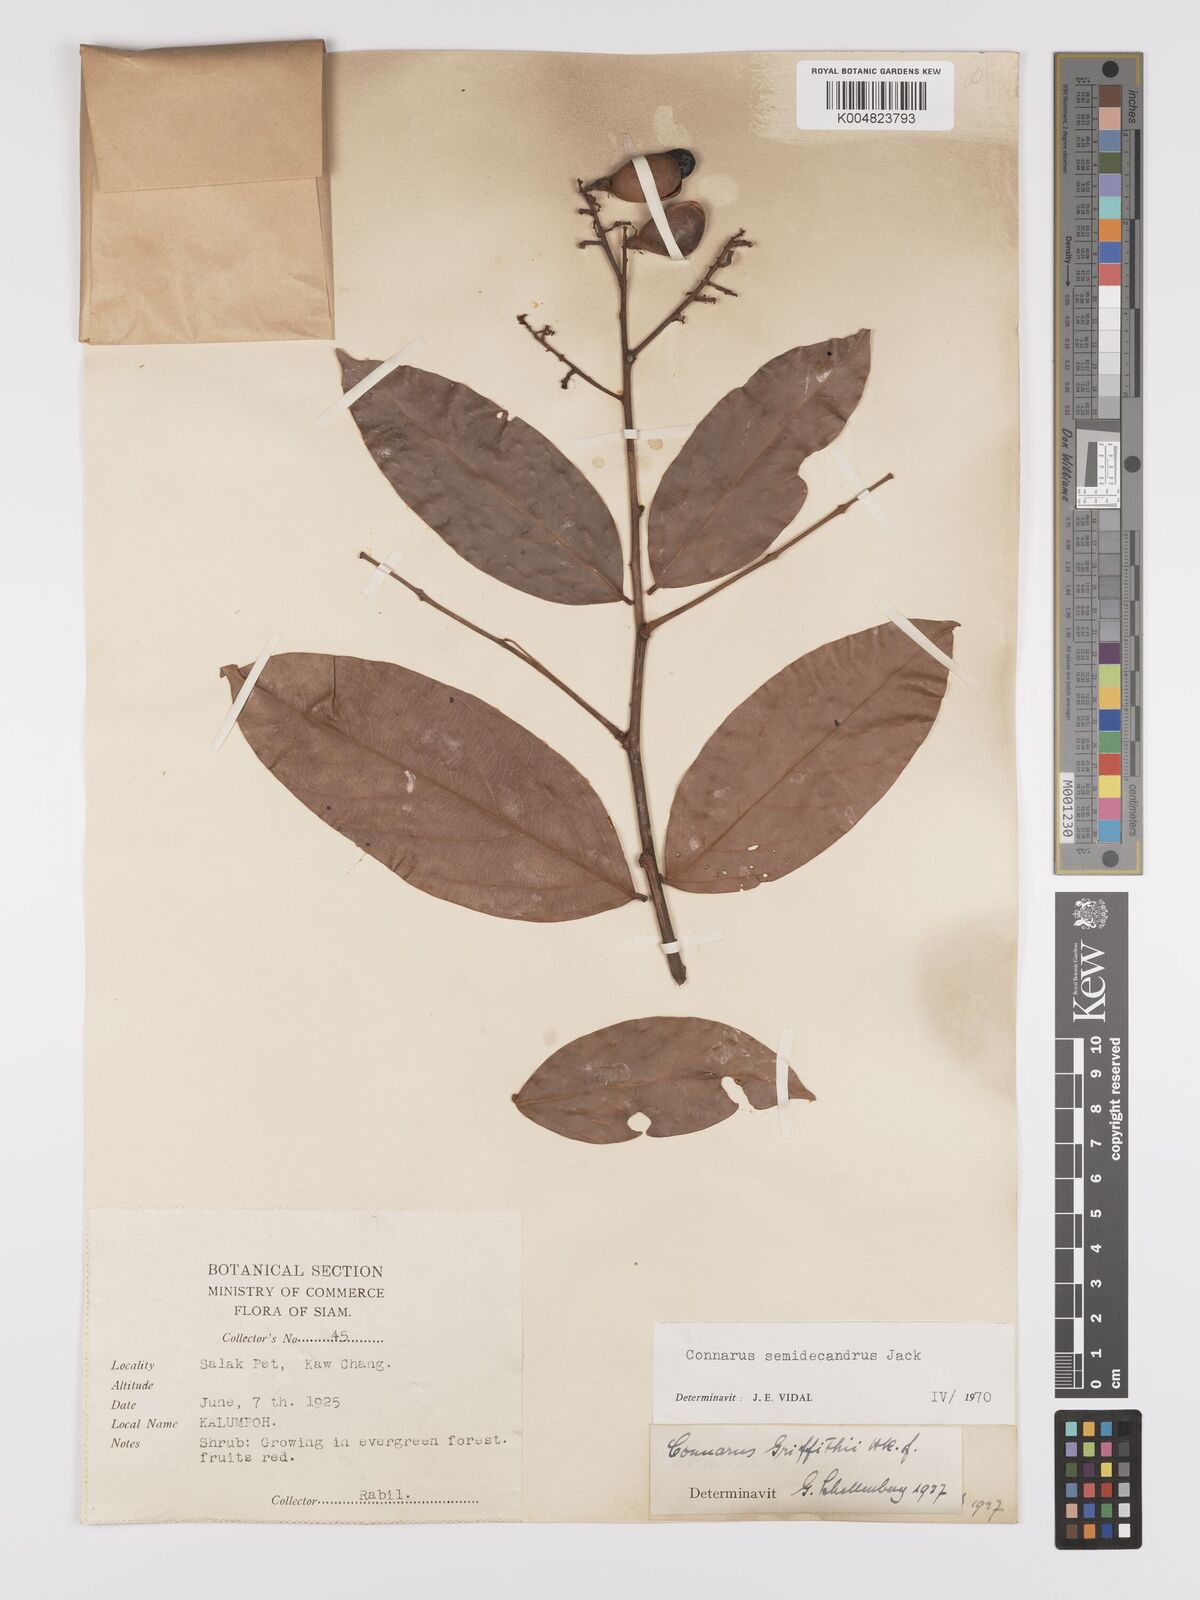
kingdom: Plantae
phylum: Tracheophyta
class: Magnoliopsida
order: Oxalidales
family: Connaraceae
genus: Connarus
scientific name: Connarus semidecandrus
